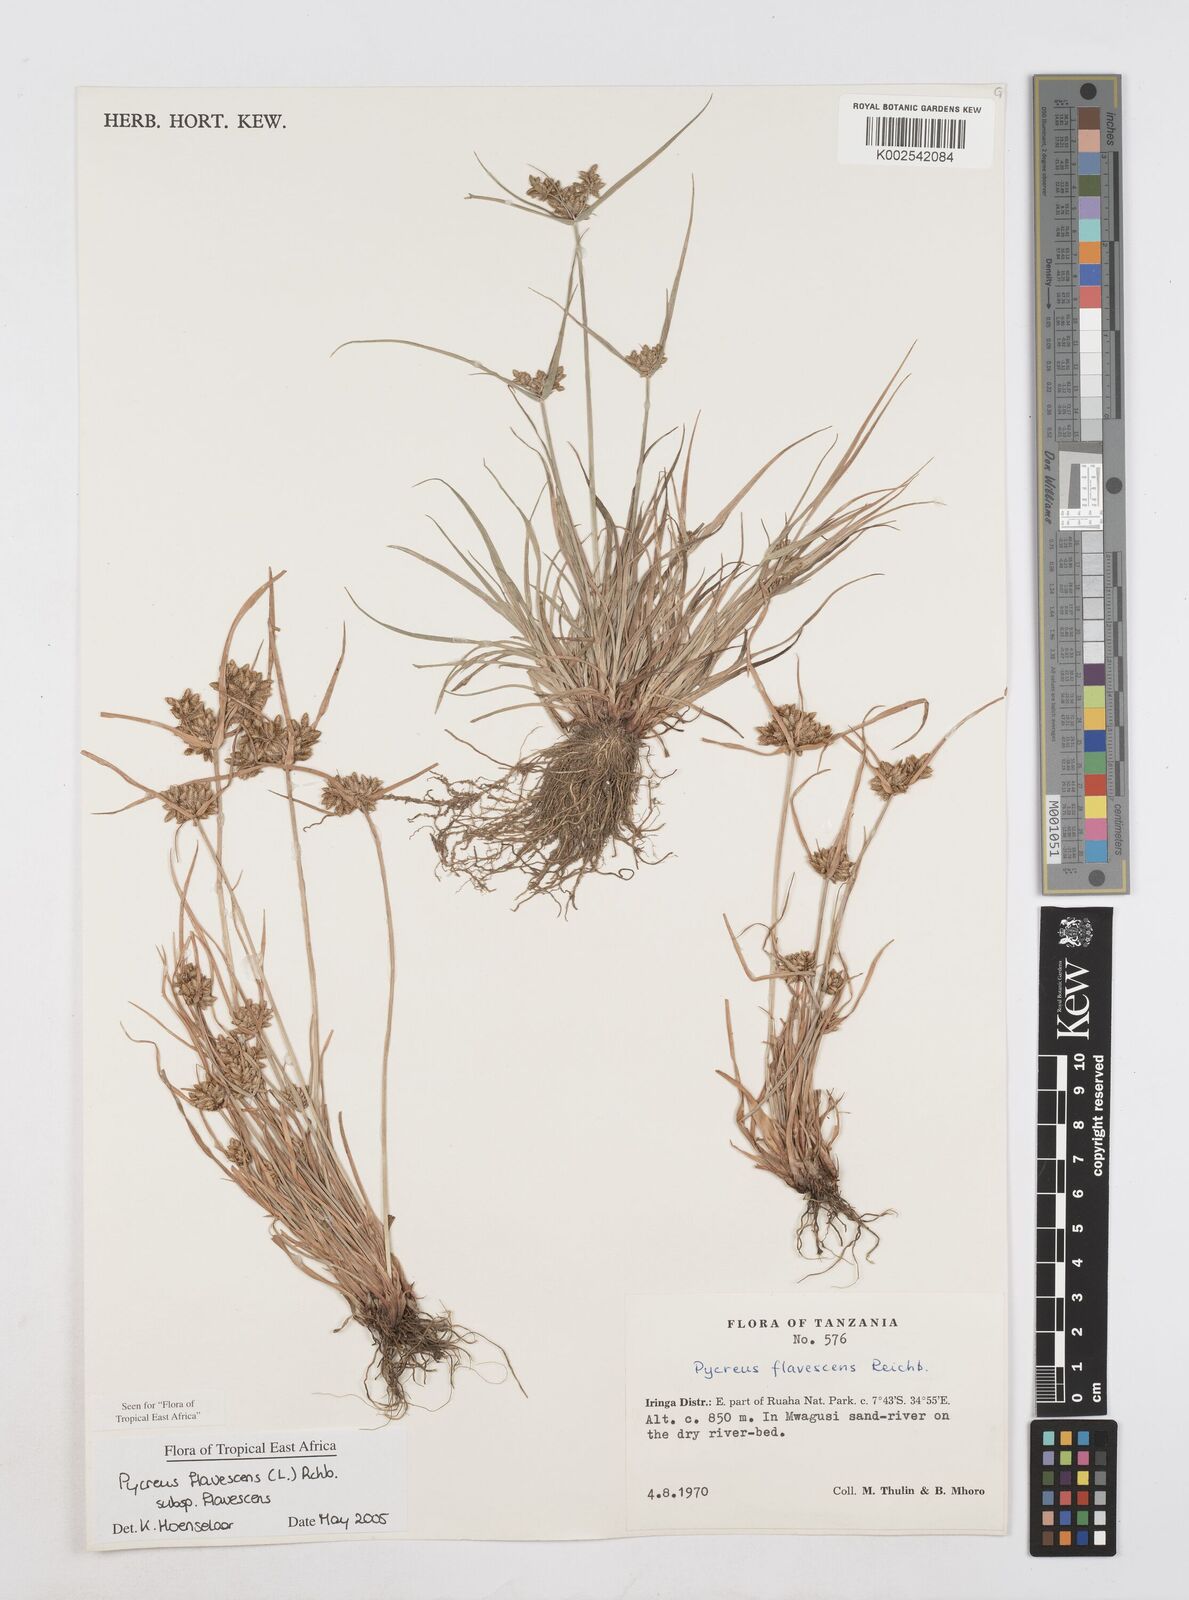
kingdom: Plantae
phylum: Tracheophyta
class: Liliopsida
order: Poales
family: Cyperaceae
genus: Cyperus
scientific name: Cyperus flavescens
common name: Yellow galingale
